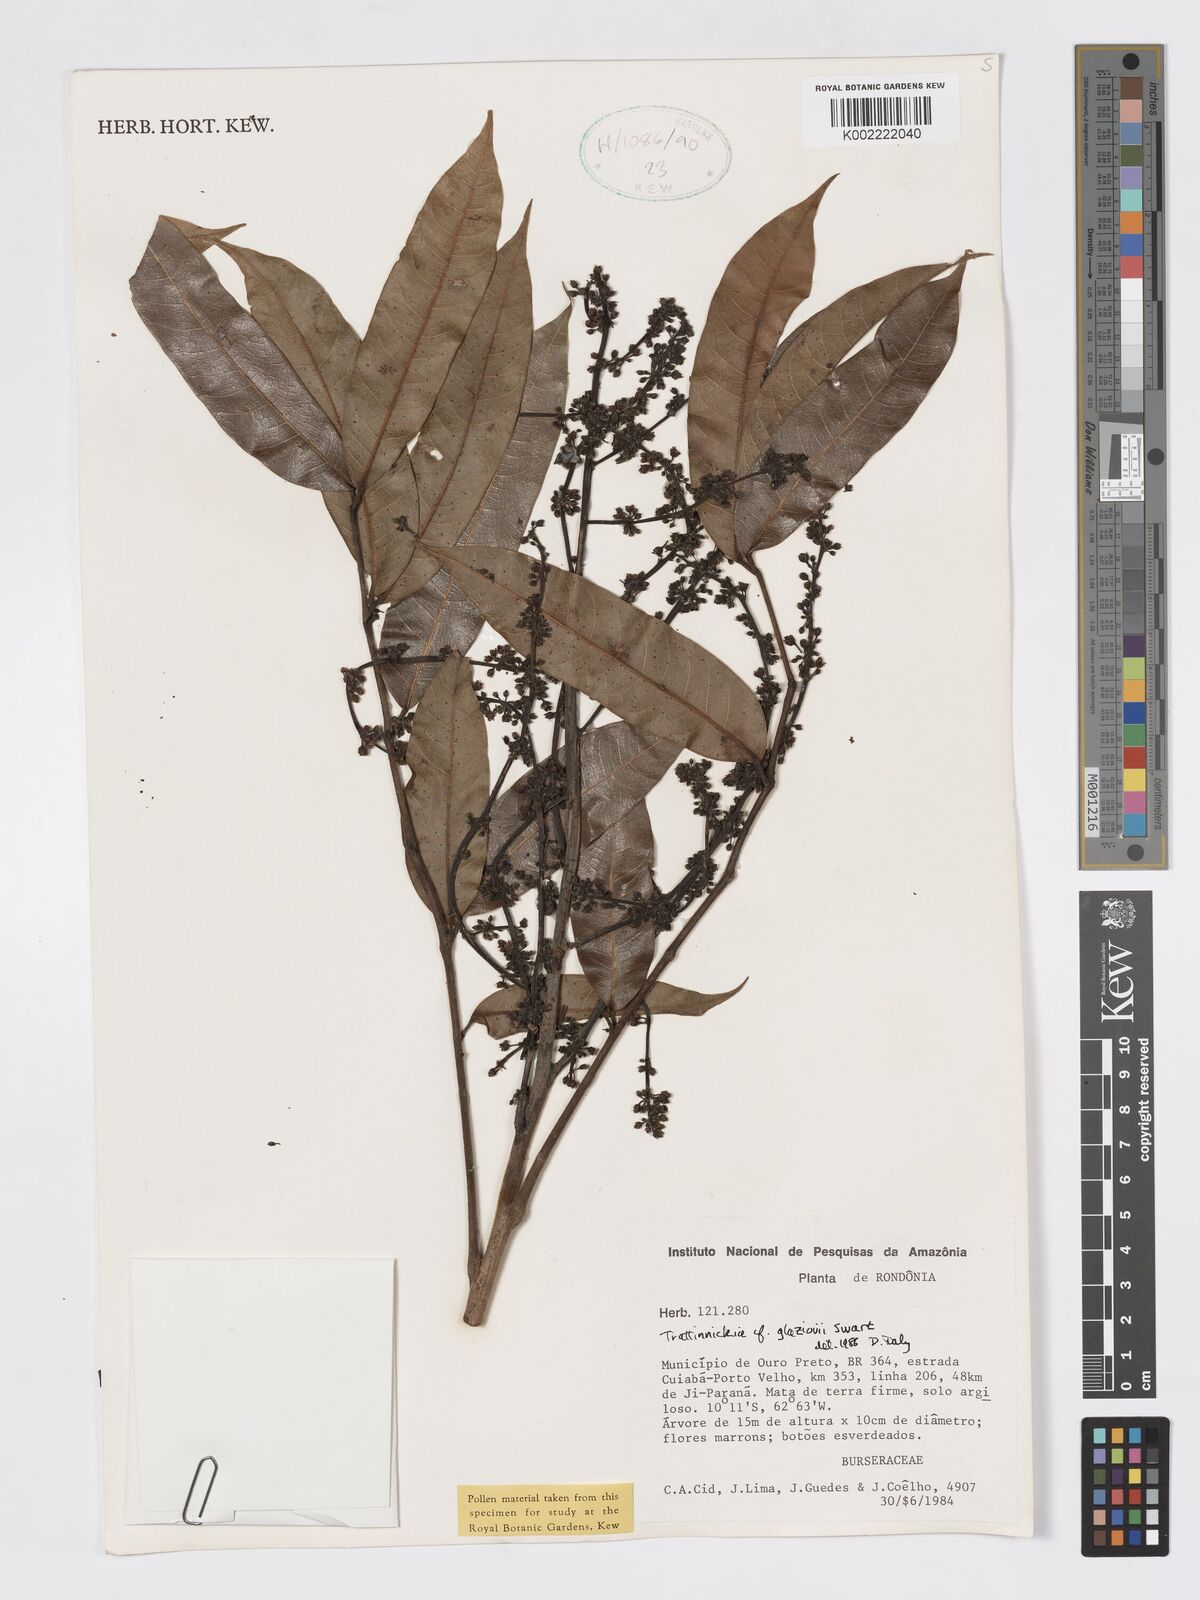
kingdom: Plantae
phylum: Tracheophyta
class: Magnoliopsida
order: Sapindales
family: Burseraceae
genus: Trattinnickia
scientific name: Trattinnickia glaziovii
